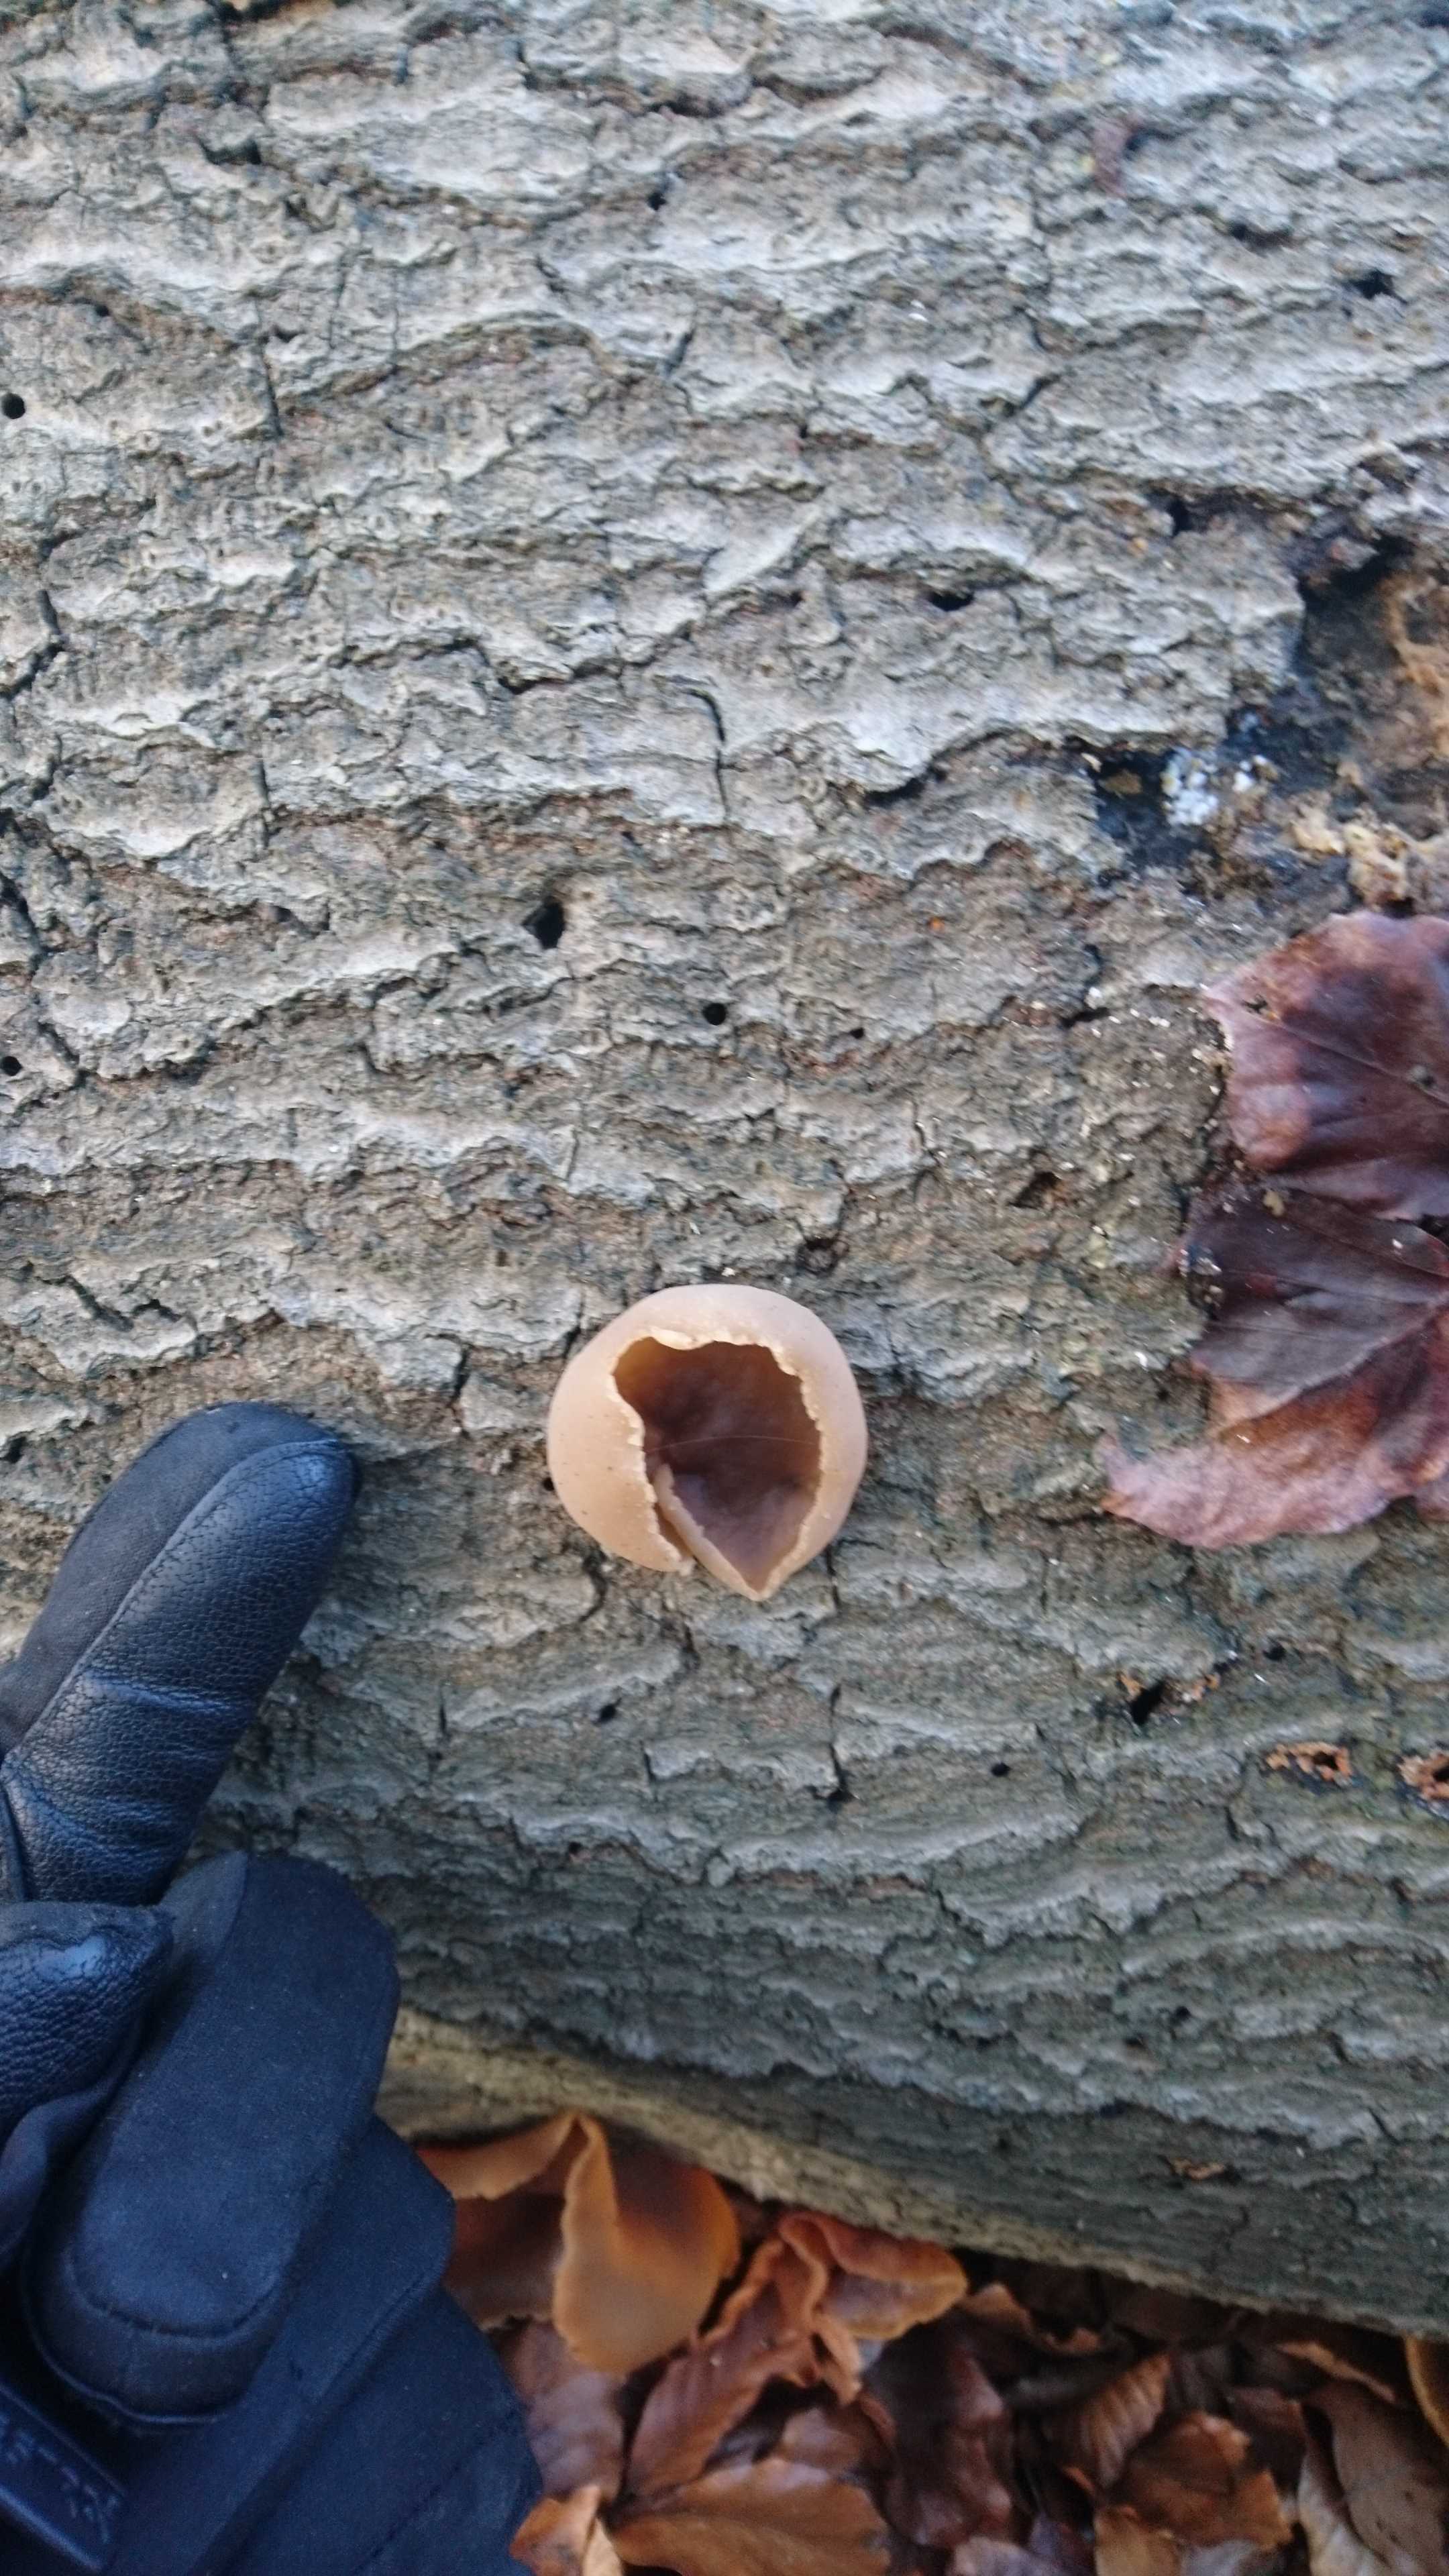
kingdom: Fungi
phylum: Ascomycota
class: Pezizomycetes
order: Pezizales
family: Pezizaceae
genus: Peziza
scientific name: Peziza varia
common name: Ved-bægersvamp
